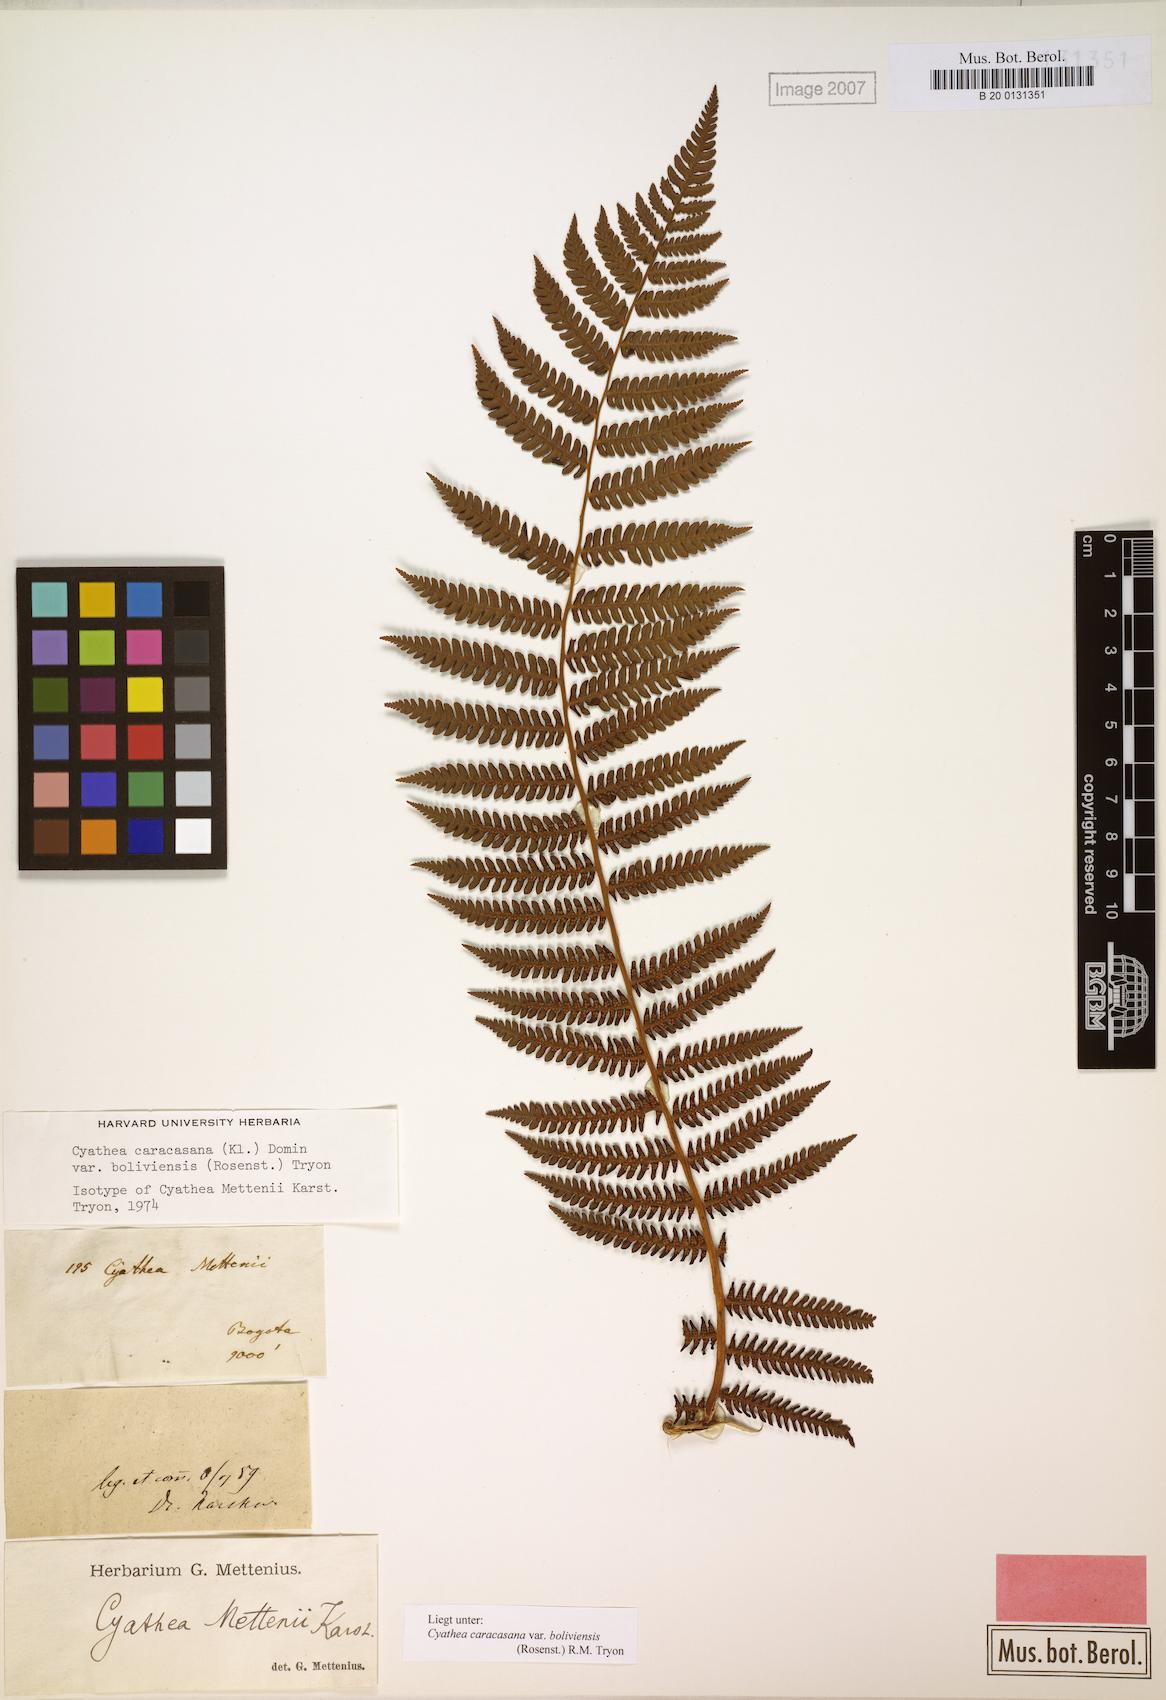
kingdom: Plantae
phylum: Tracheophyta
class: Polypodiopsida
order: Cyatheales
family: Cyatheaceae
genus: Cyathea
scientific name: Cyathea squamipes
